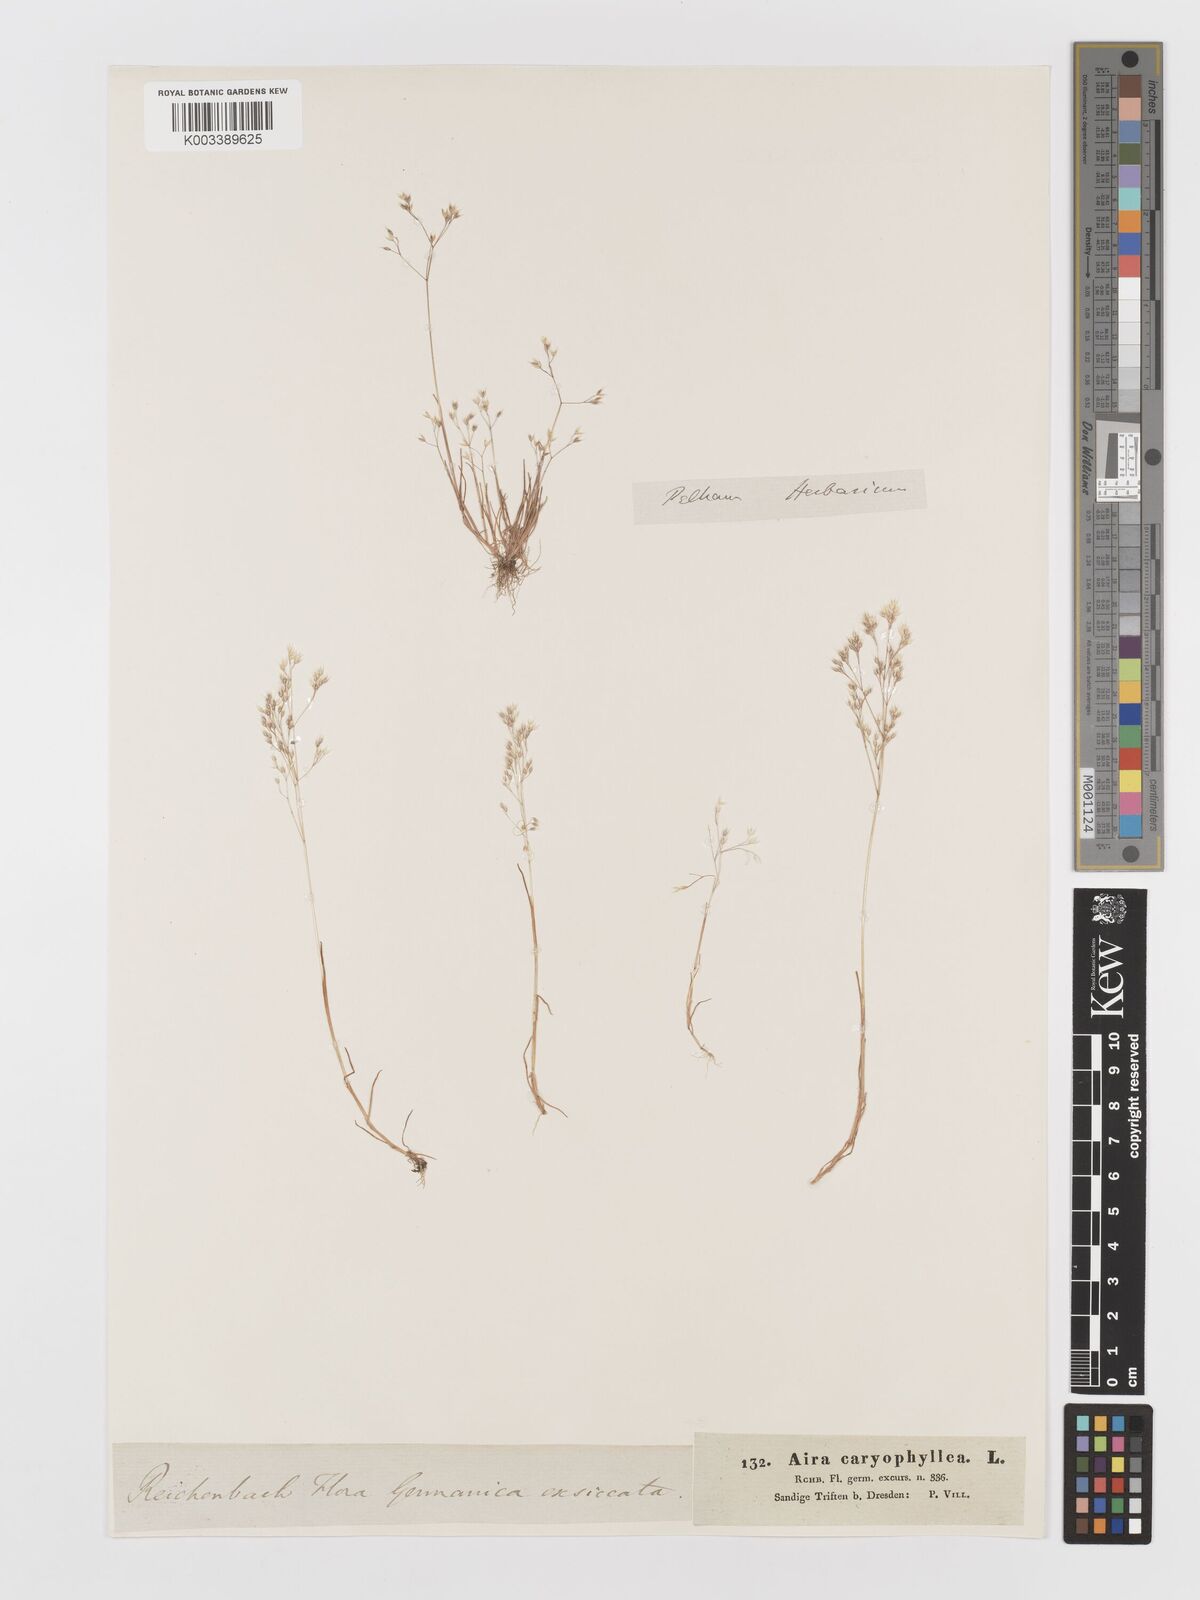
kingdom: Plantae
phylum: Tracheophyta
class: Liliopsida
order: Poales
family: Poaceae
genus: Aira
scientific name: Aira caryophyllea
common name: Silver hairgrass
